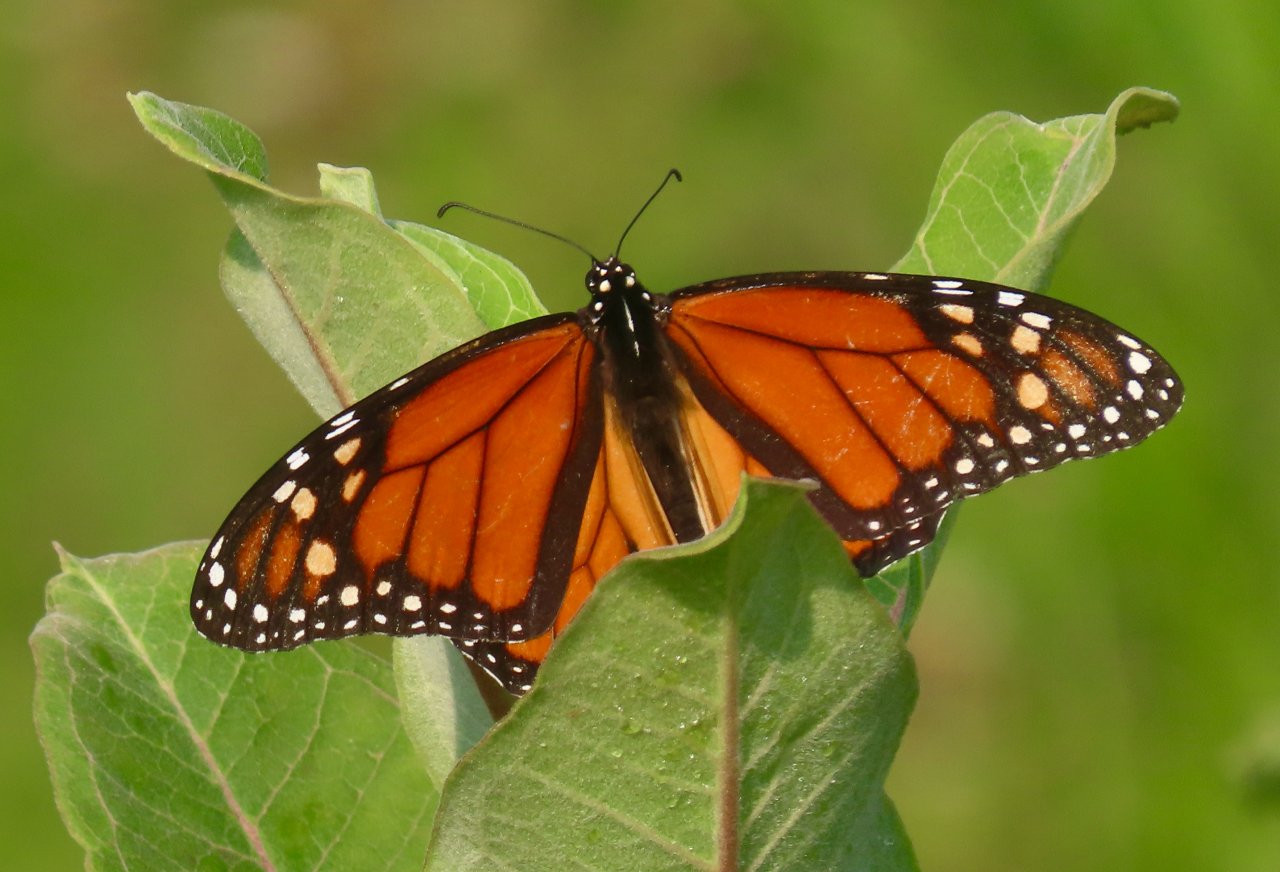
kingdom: Animalia
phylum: Arthropoda
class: Insecta
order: Lepidoptera
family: Nymphalidae
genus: Danaus
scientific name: Danaus plexippus
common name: Monarch
